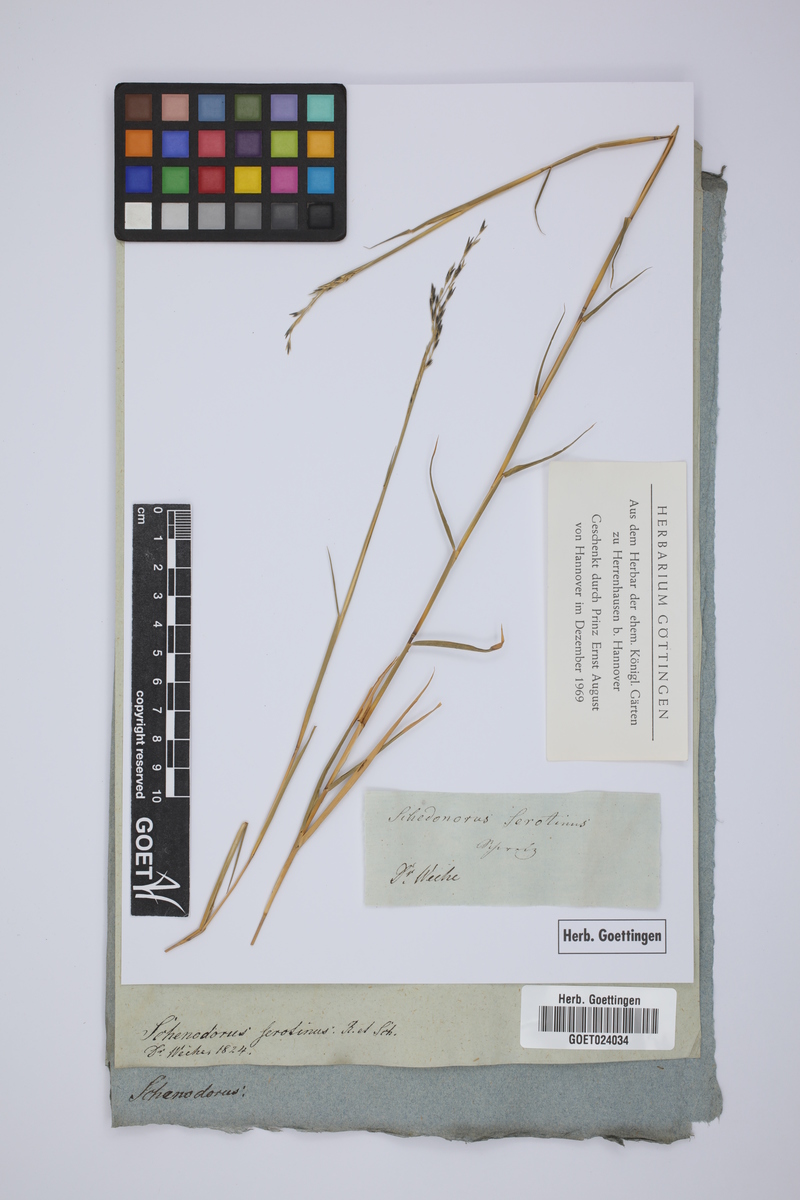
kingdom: Plantae
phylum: Tracheophyta
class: Liliopsida
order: Poales
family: Poaceae
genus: Cleistogenes
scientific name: Cleistogenes serotina
